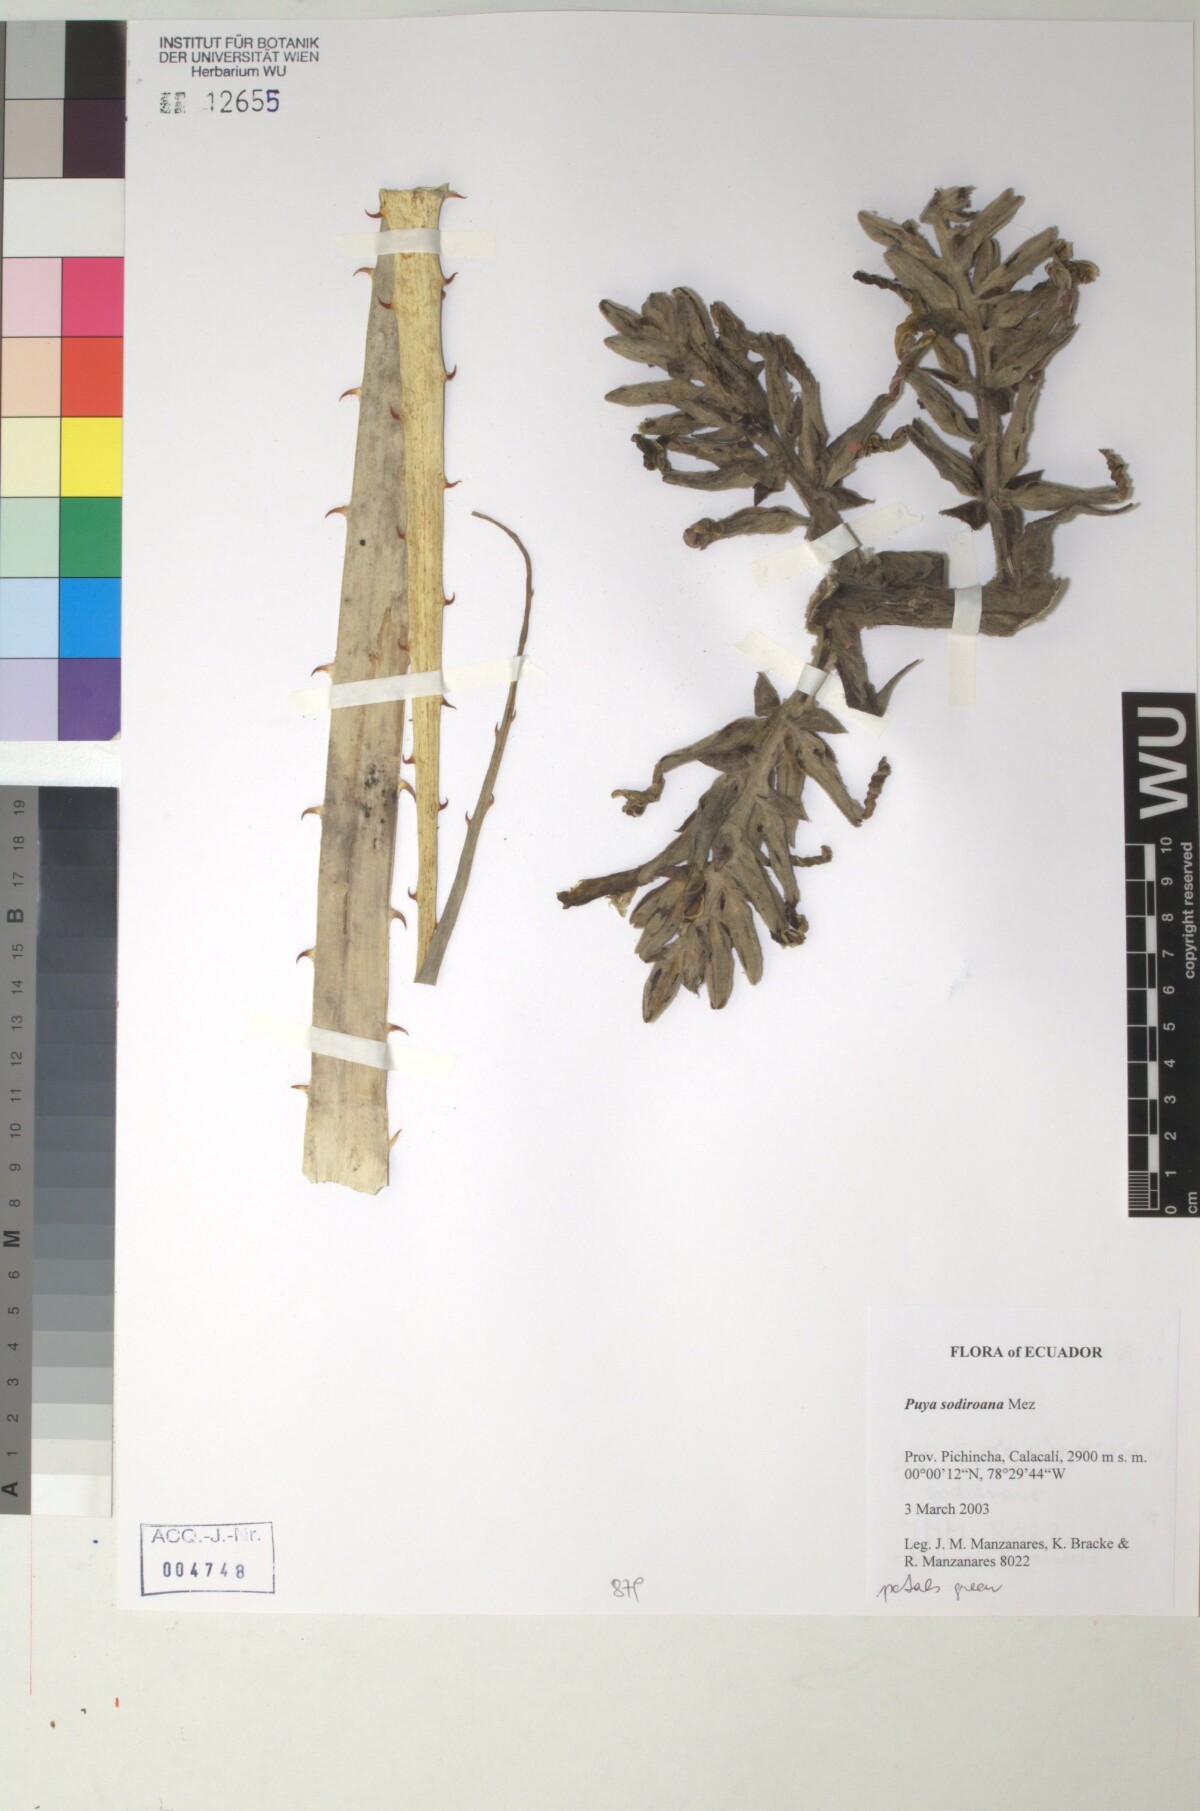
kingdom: Plantae
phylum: Tracheophyta
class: Liliopsida
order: Poales
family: Bromeliaceae
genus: Puya
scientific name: Puya sodiroana
